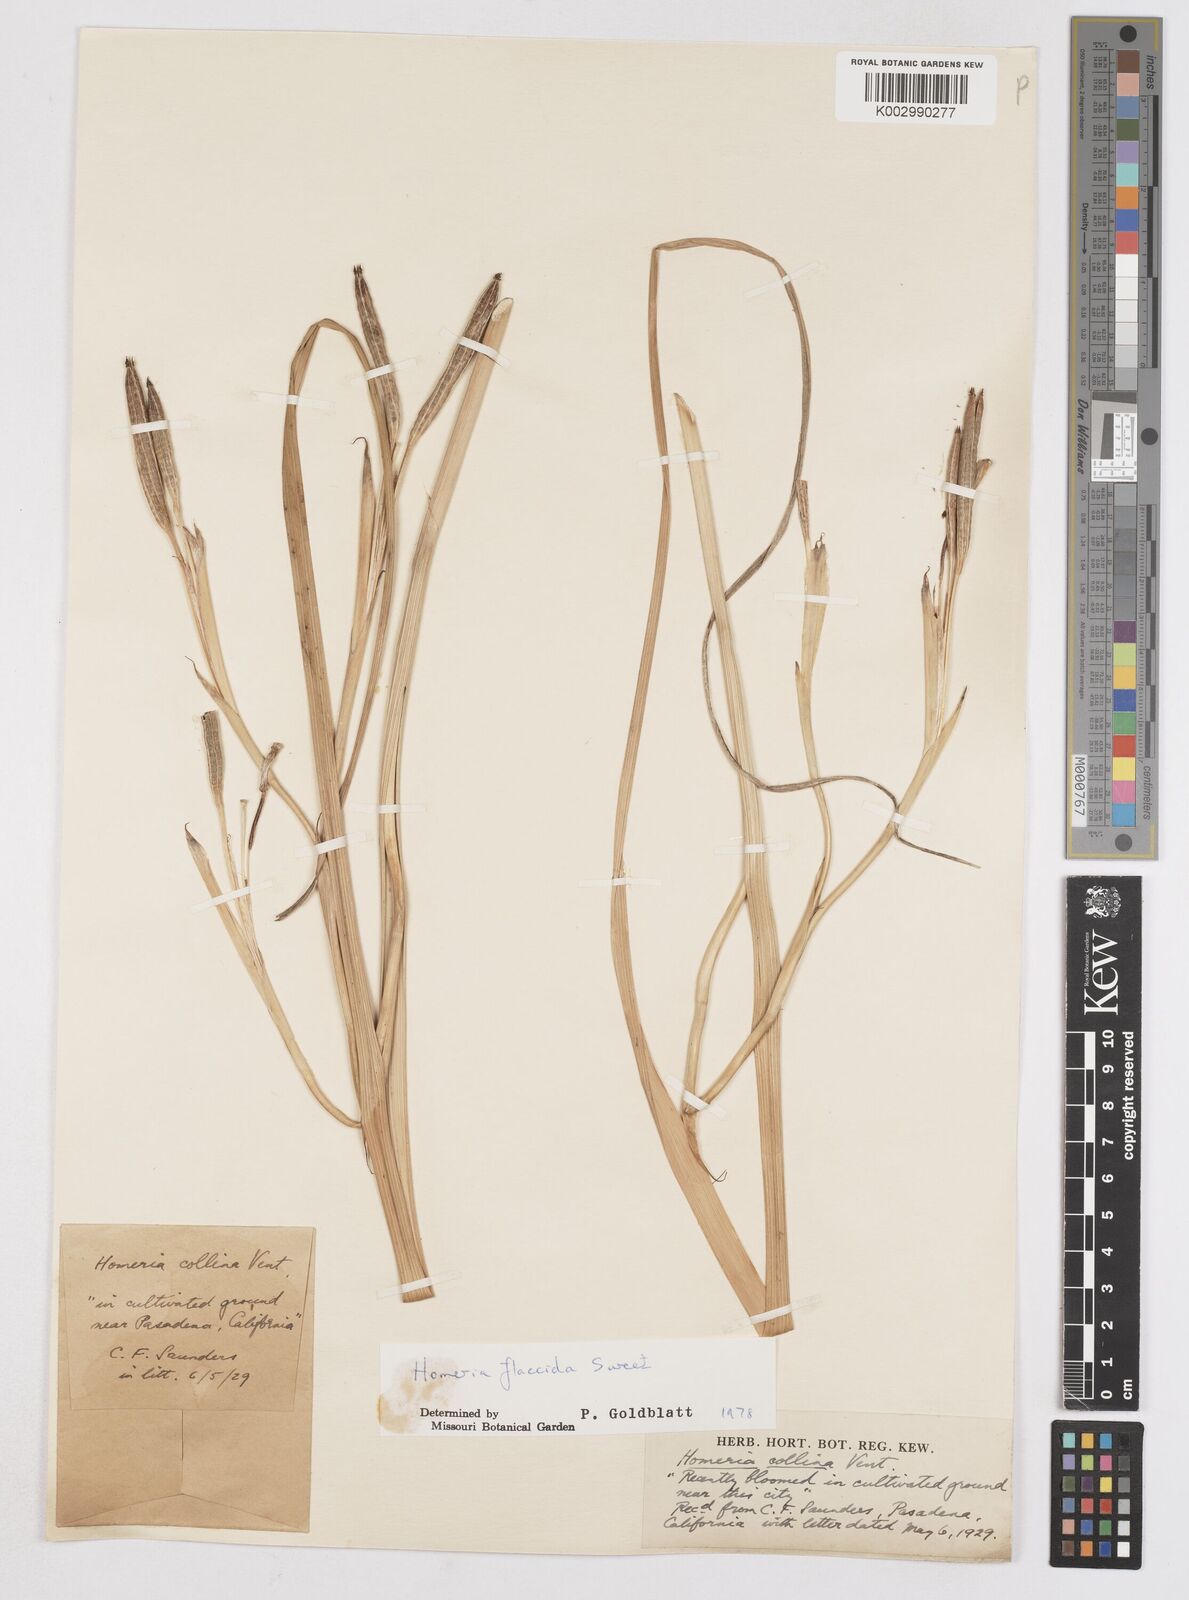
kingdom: Plantae
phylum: Tracheophyta
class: Liliopsida
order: Asparagales
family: Iridaceae
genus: Moraea
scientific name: Moraea flaccida
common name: One-leaf cape-tulip
